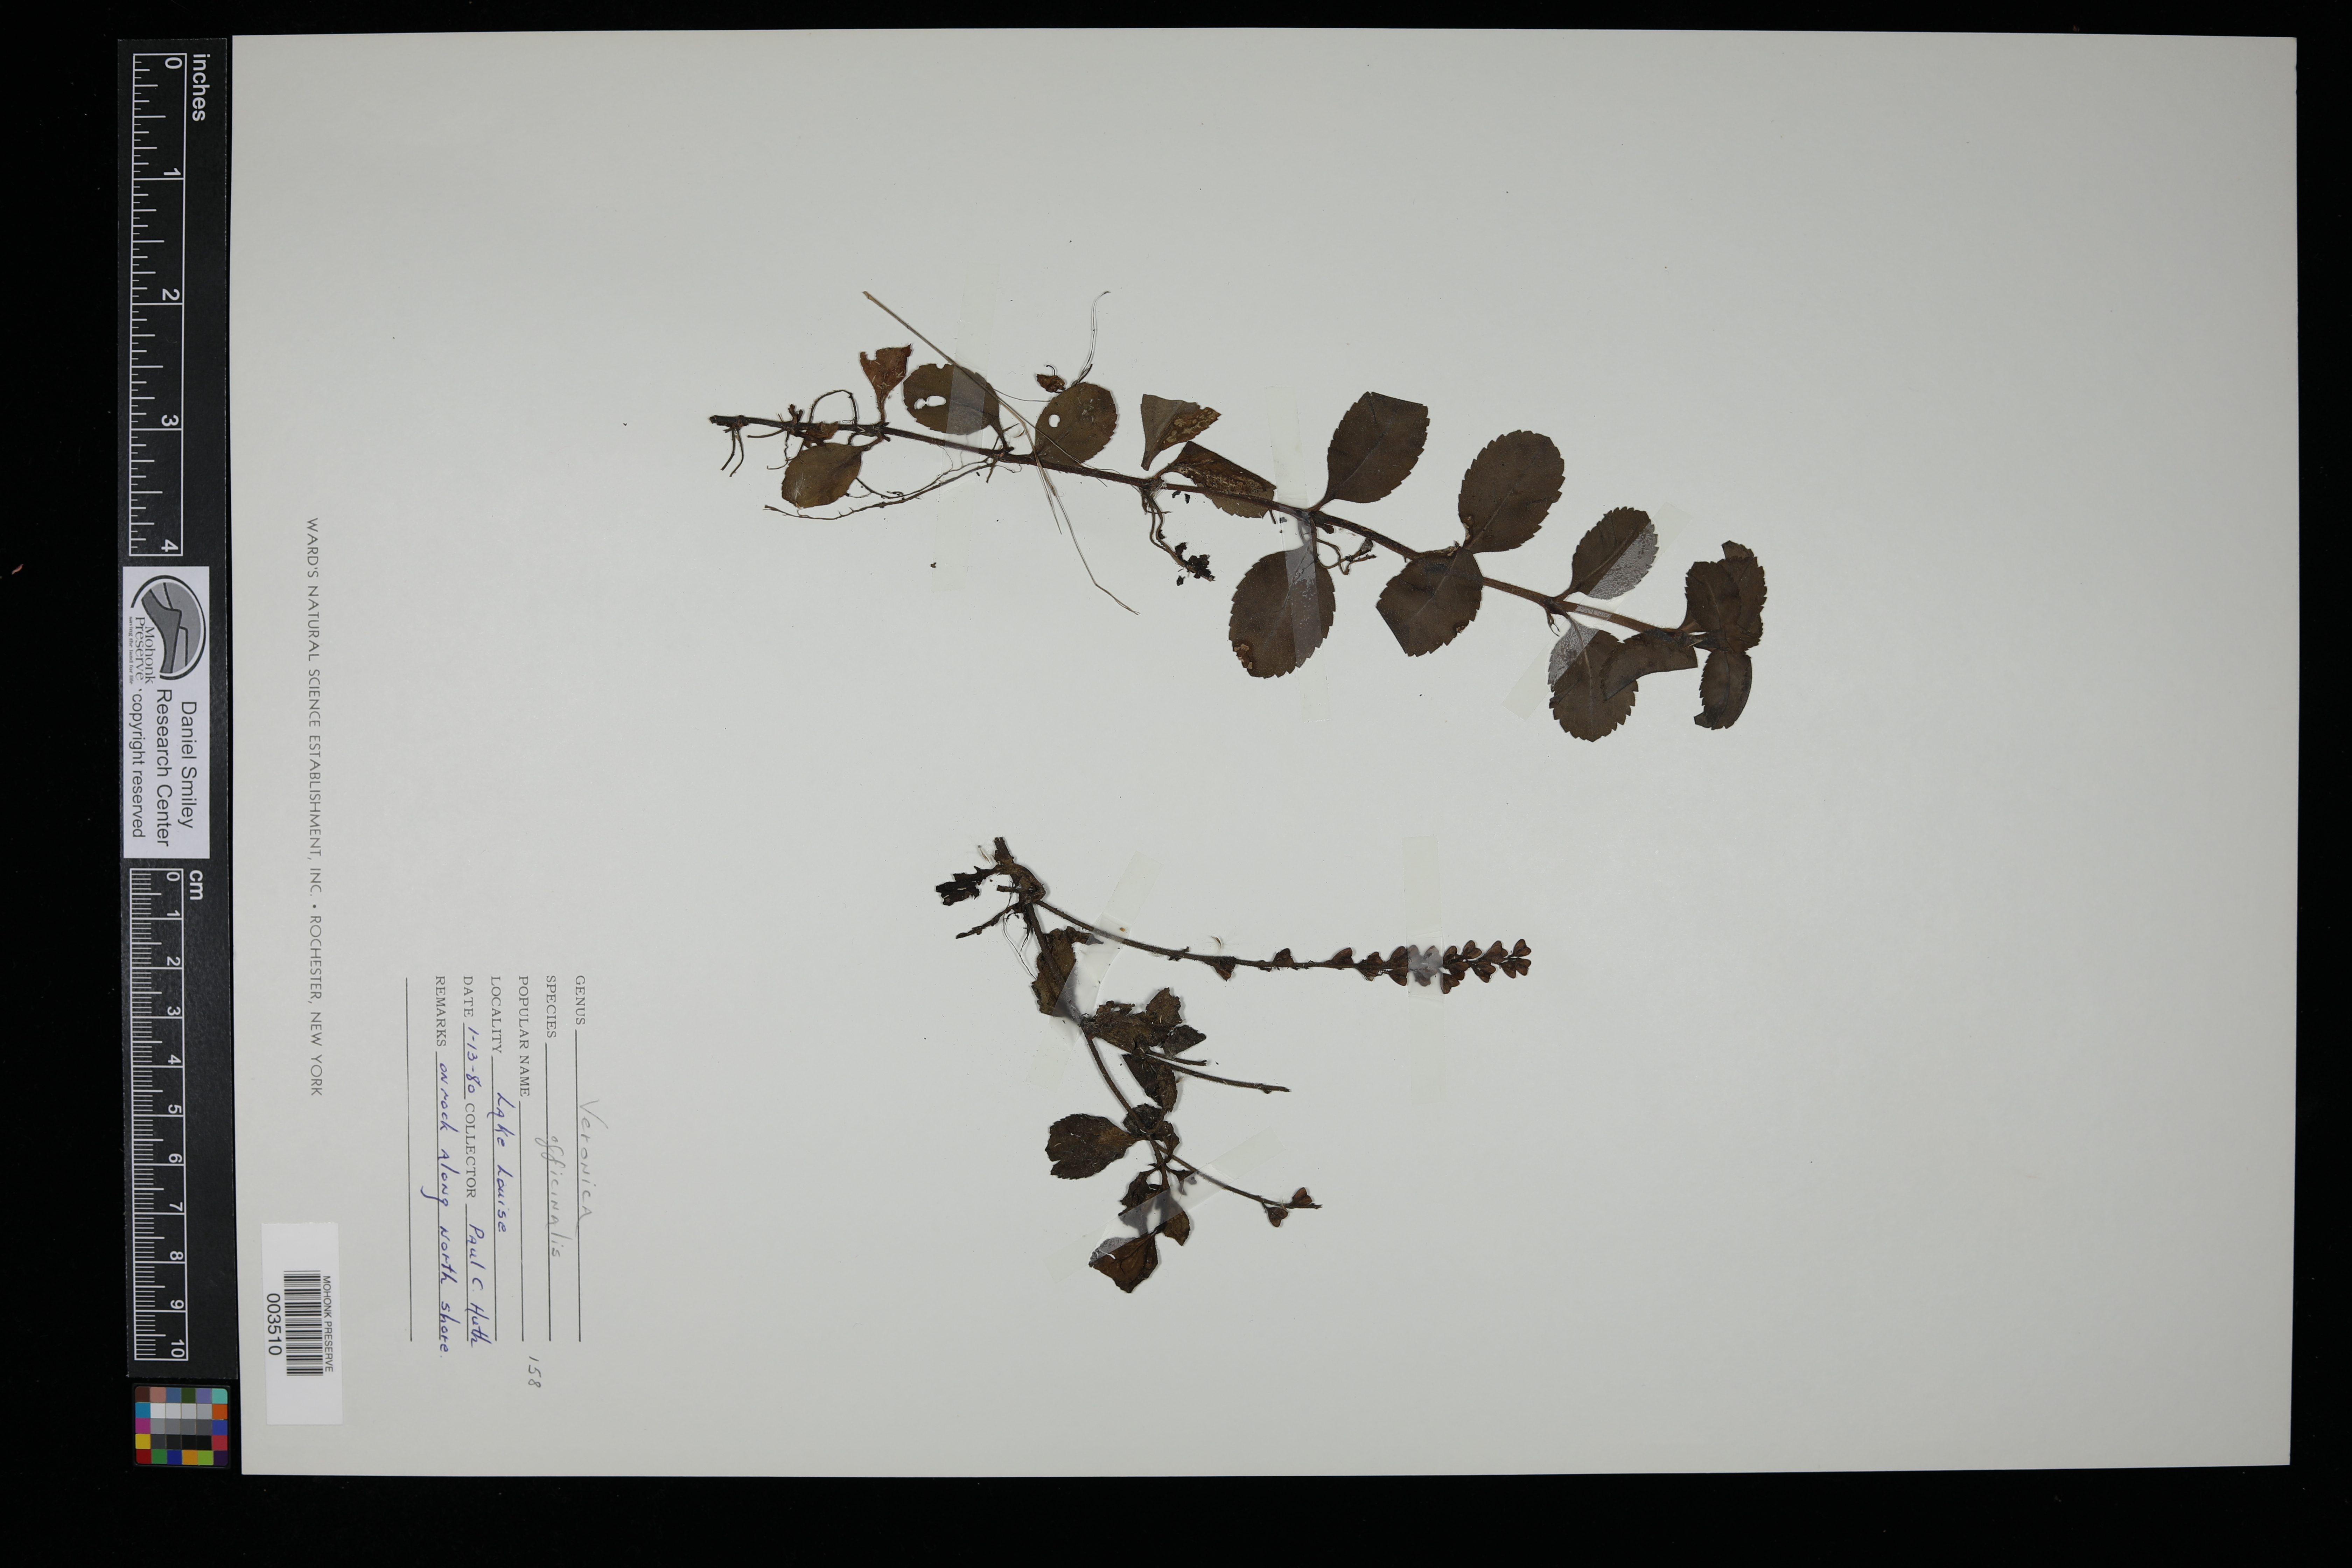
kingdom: Plantae
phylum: Tracheophyta
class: Magnoliopsida
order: Lamiales
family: Plantaginaceae
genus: Veronica
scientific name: Veronica officinalis
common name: Common speedwell
